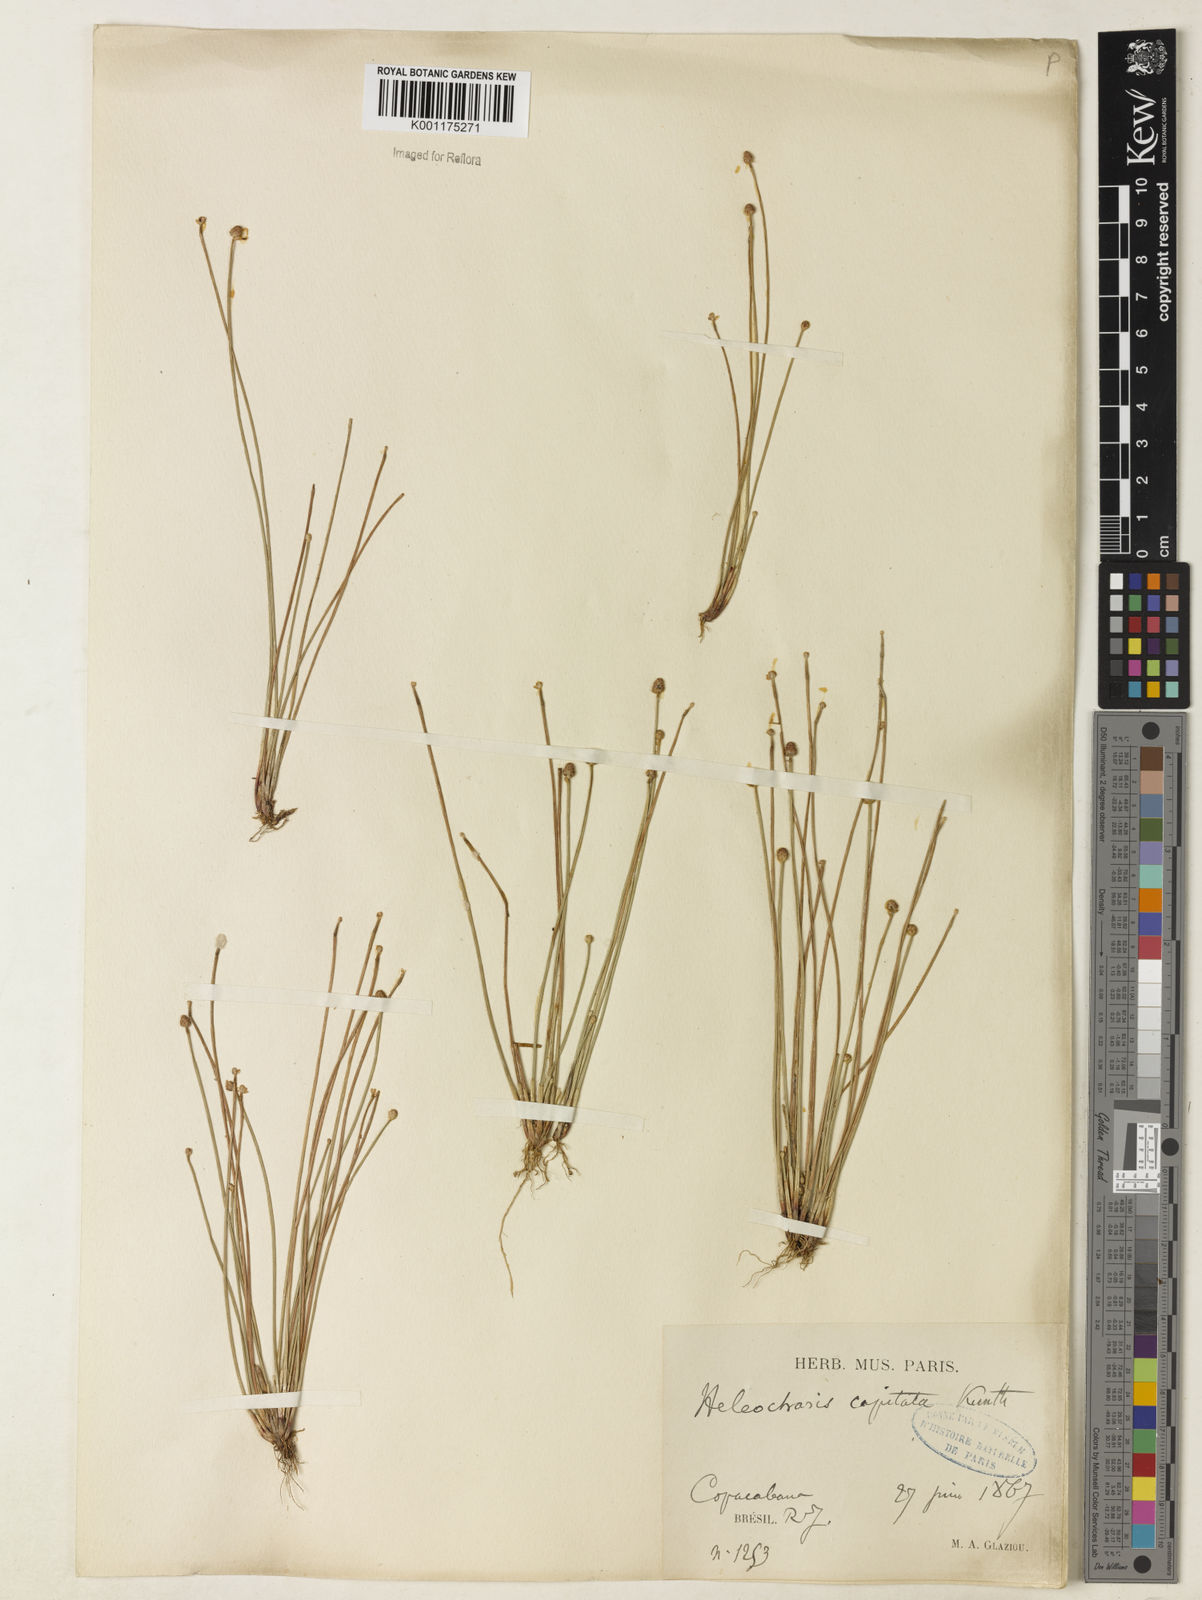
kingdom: Plantae
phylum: Tracheophyta
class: Liliopsida
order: Poales
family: Cyperaceae
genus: Eleocharis
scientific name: Eleocharis geniculata
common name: Canada spikesedge
